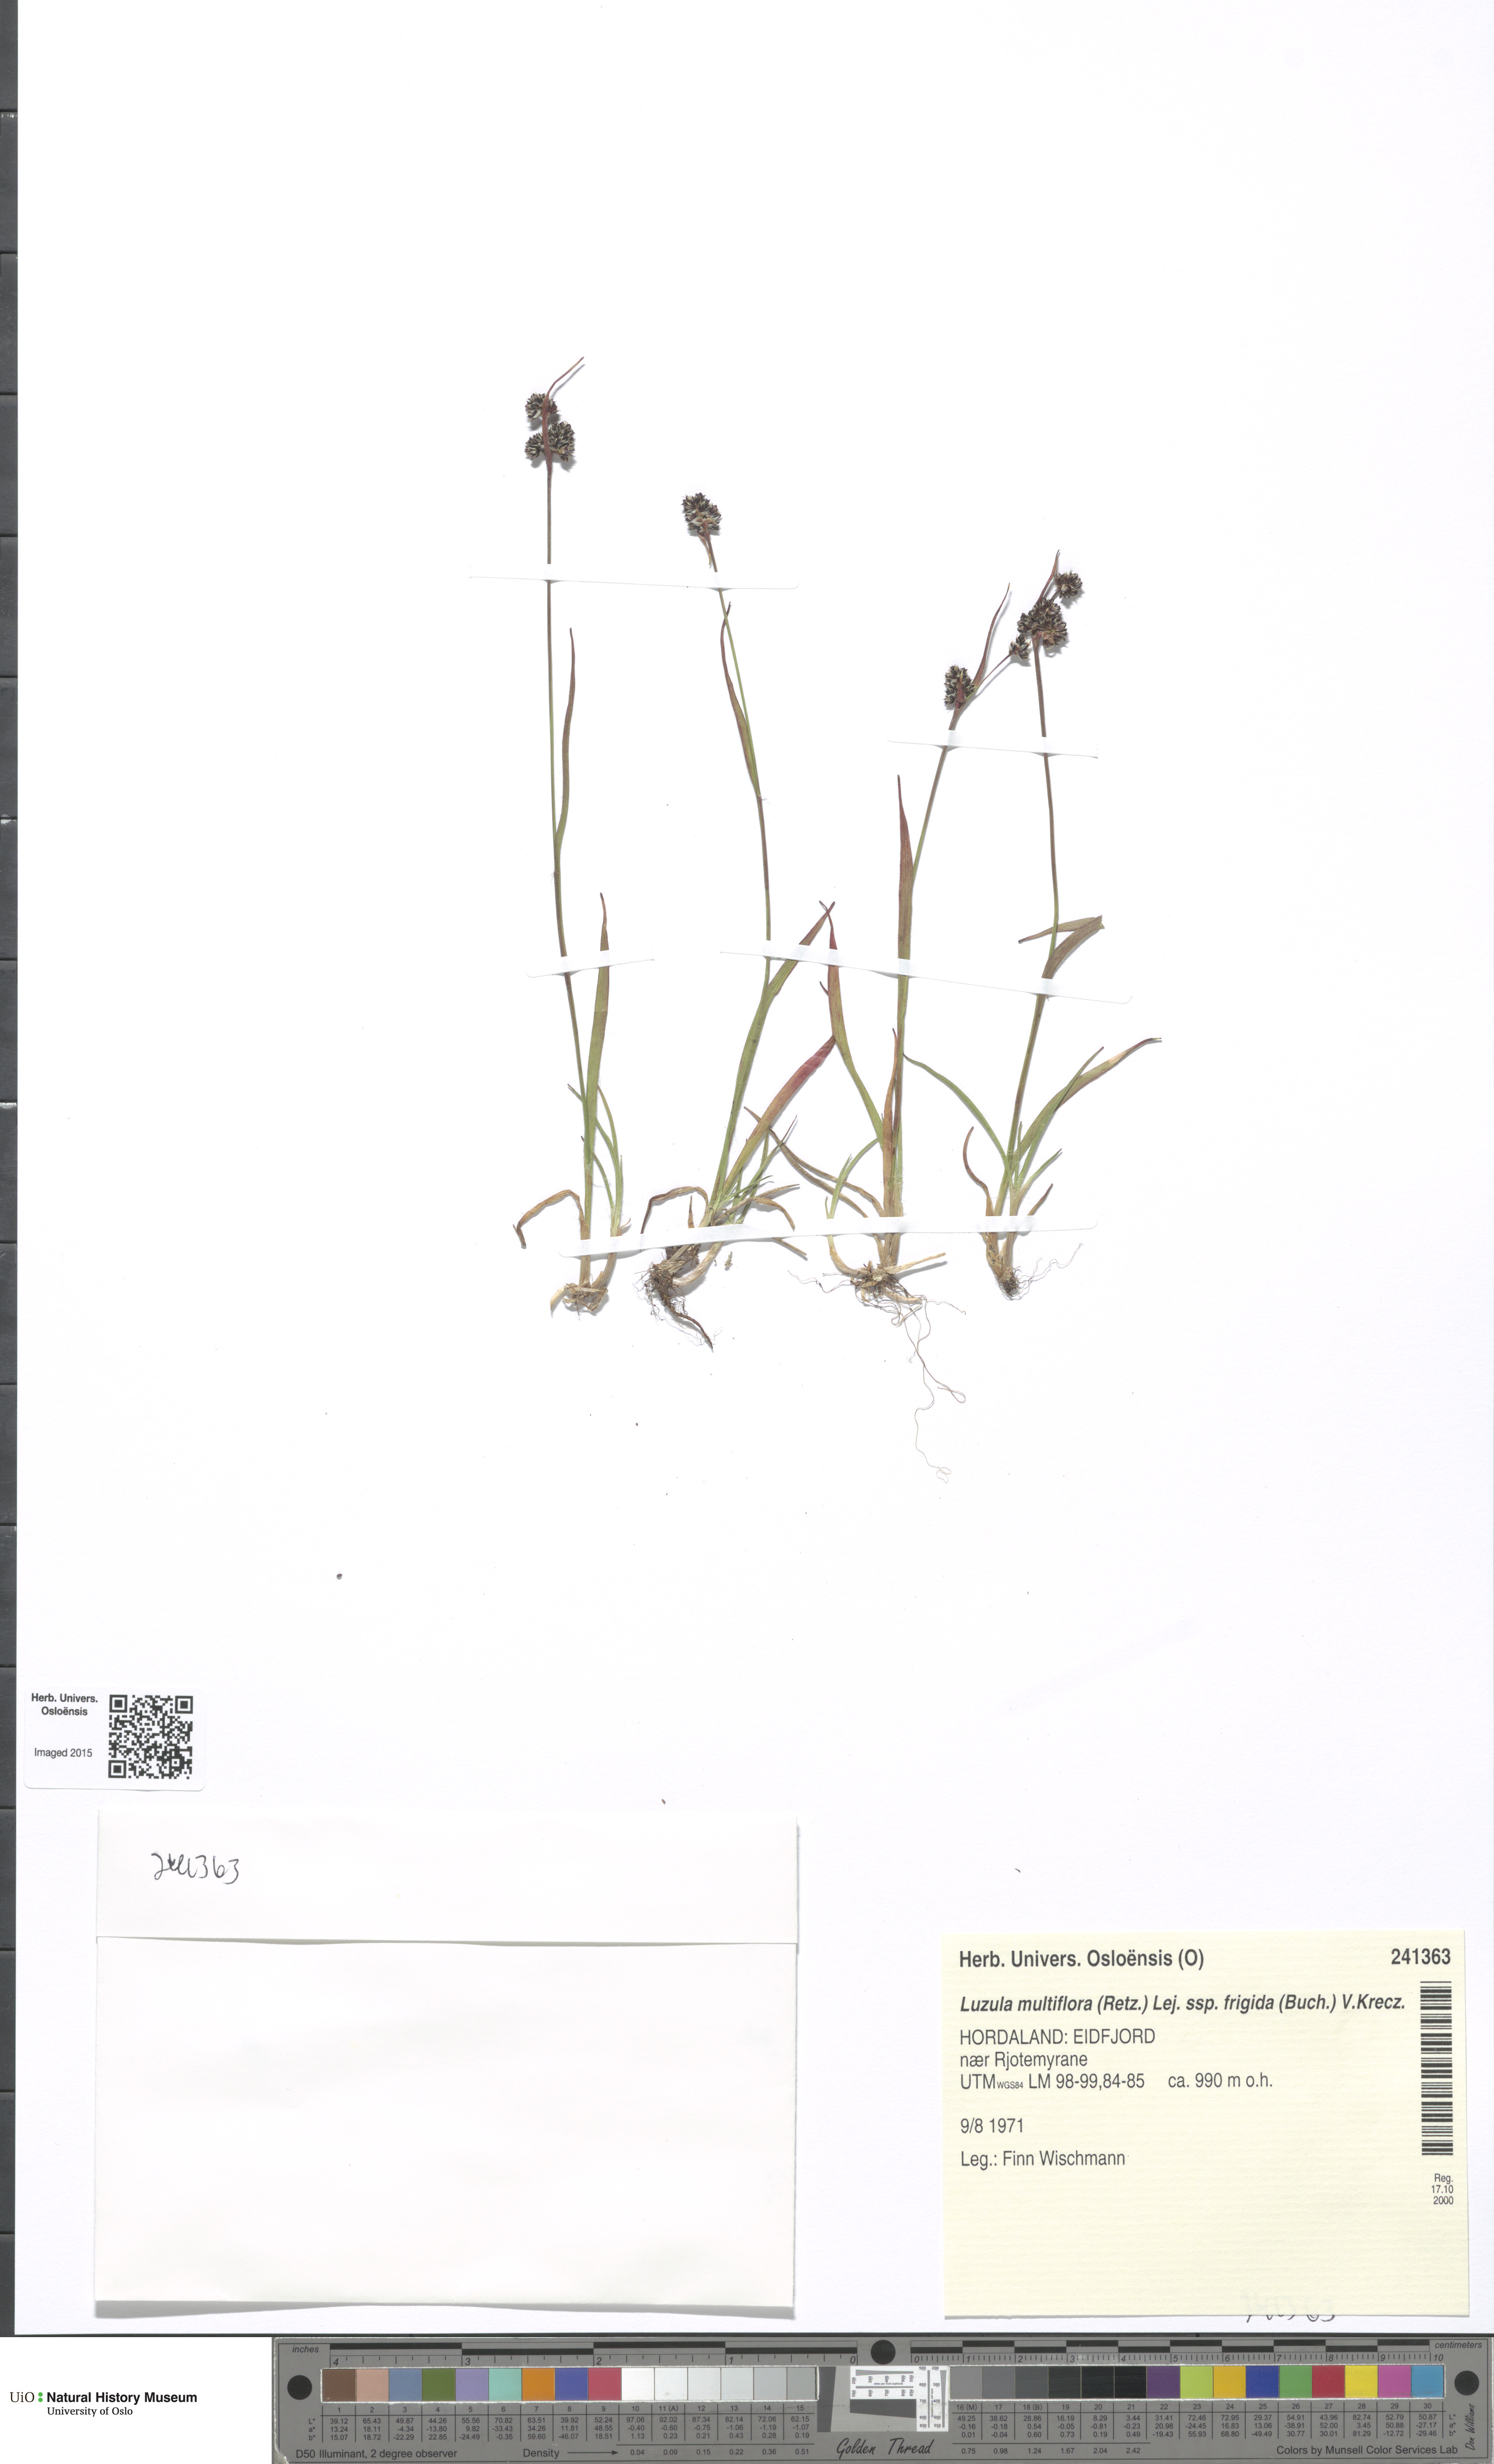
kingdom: Plantae
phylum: Tracheophyta
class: Liliopsida
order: Poales
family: Juncaceae
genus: Luzula
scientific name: Luzula multiflora
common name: Heath wood-rush
